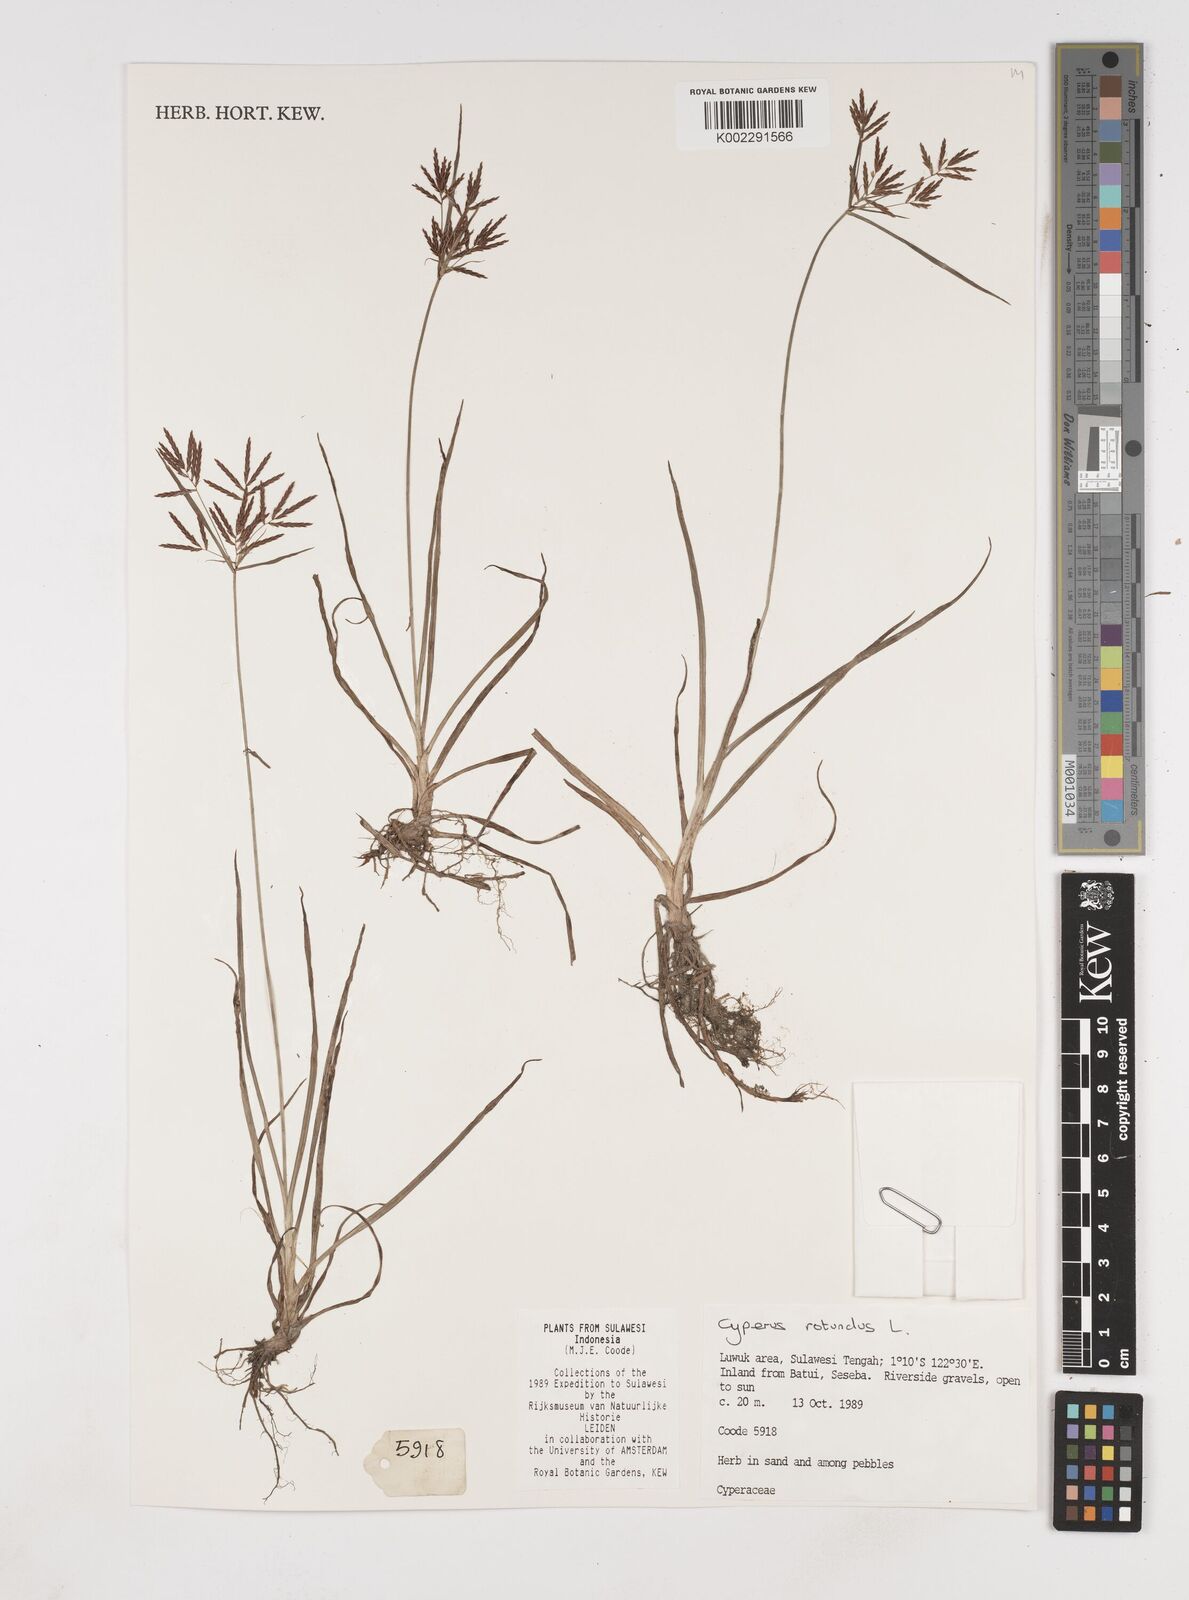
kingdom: Plantae
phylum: Tracheophyta
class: Liliopsida
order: Poales
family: Cyperaceae
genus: Cyperus
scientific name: Cyperus rotundus
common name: Nutgrass
